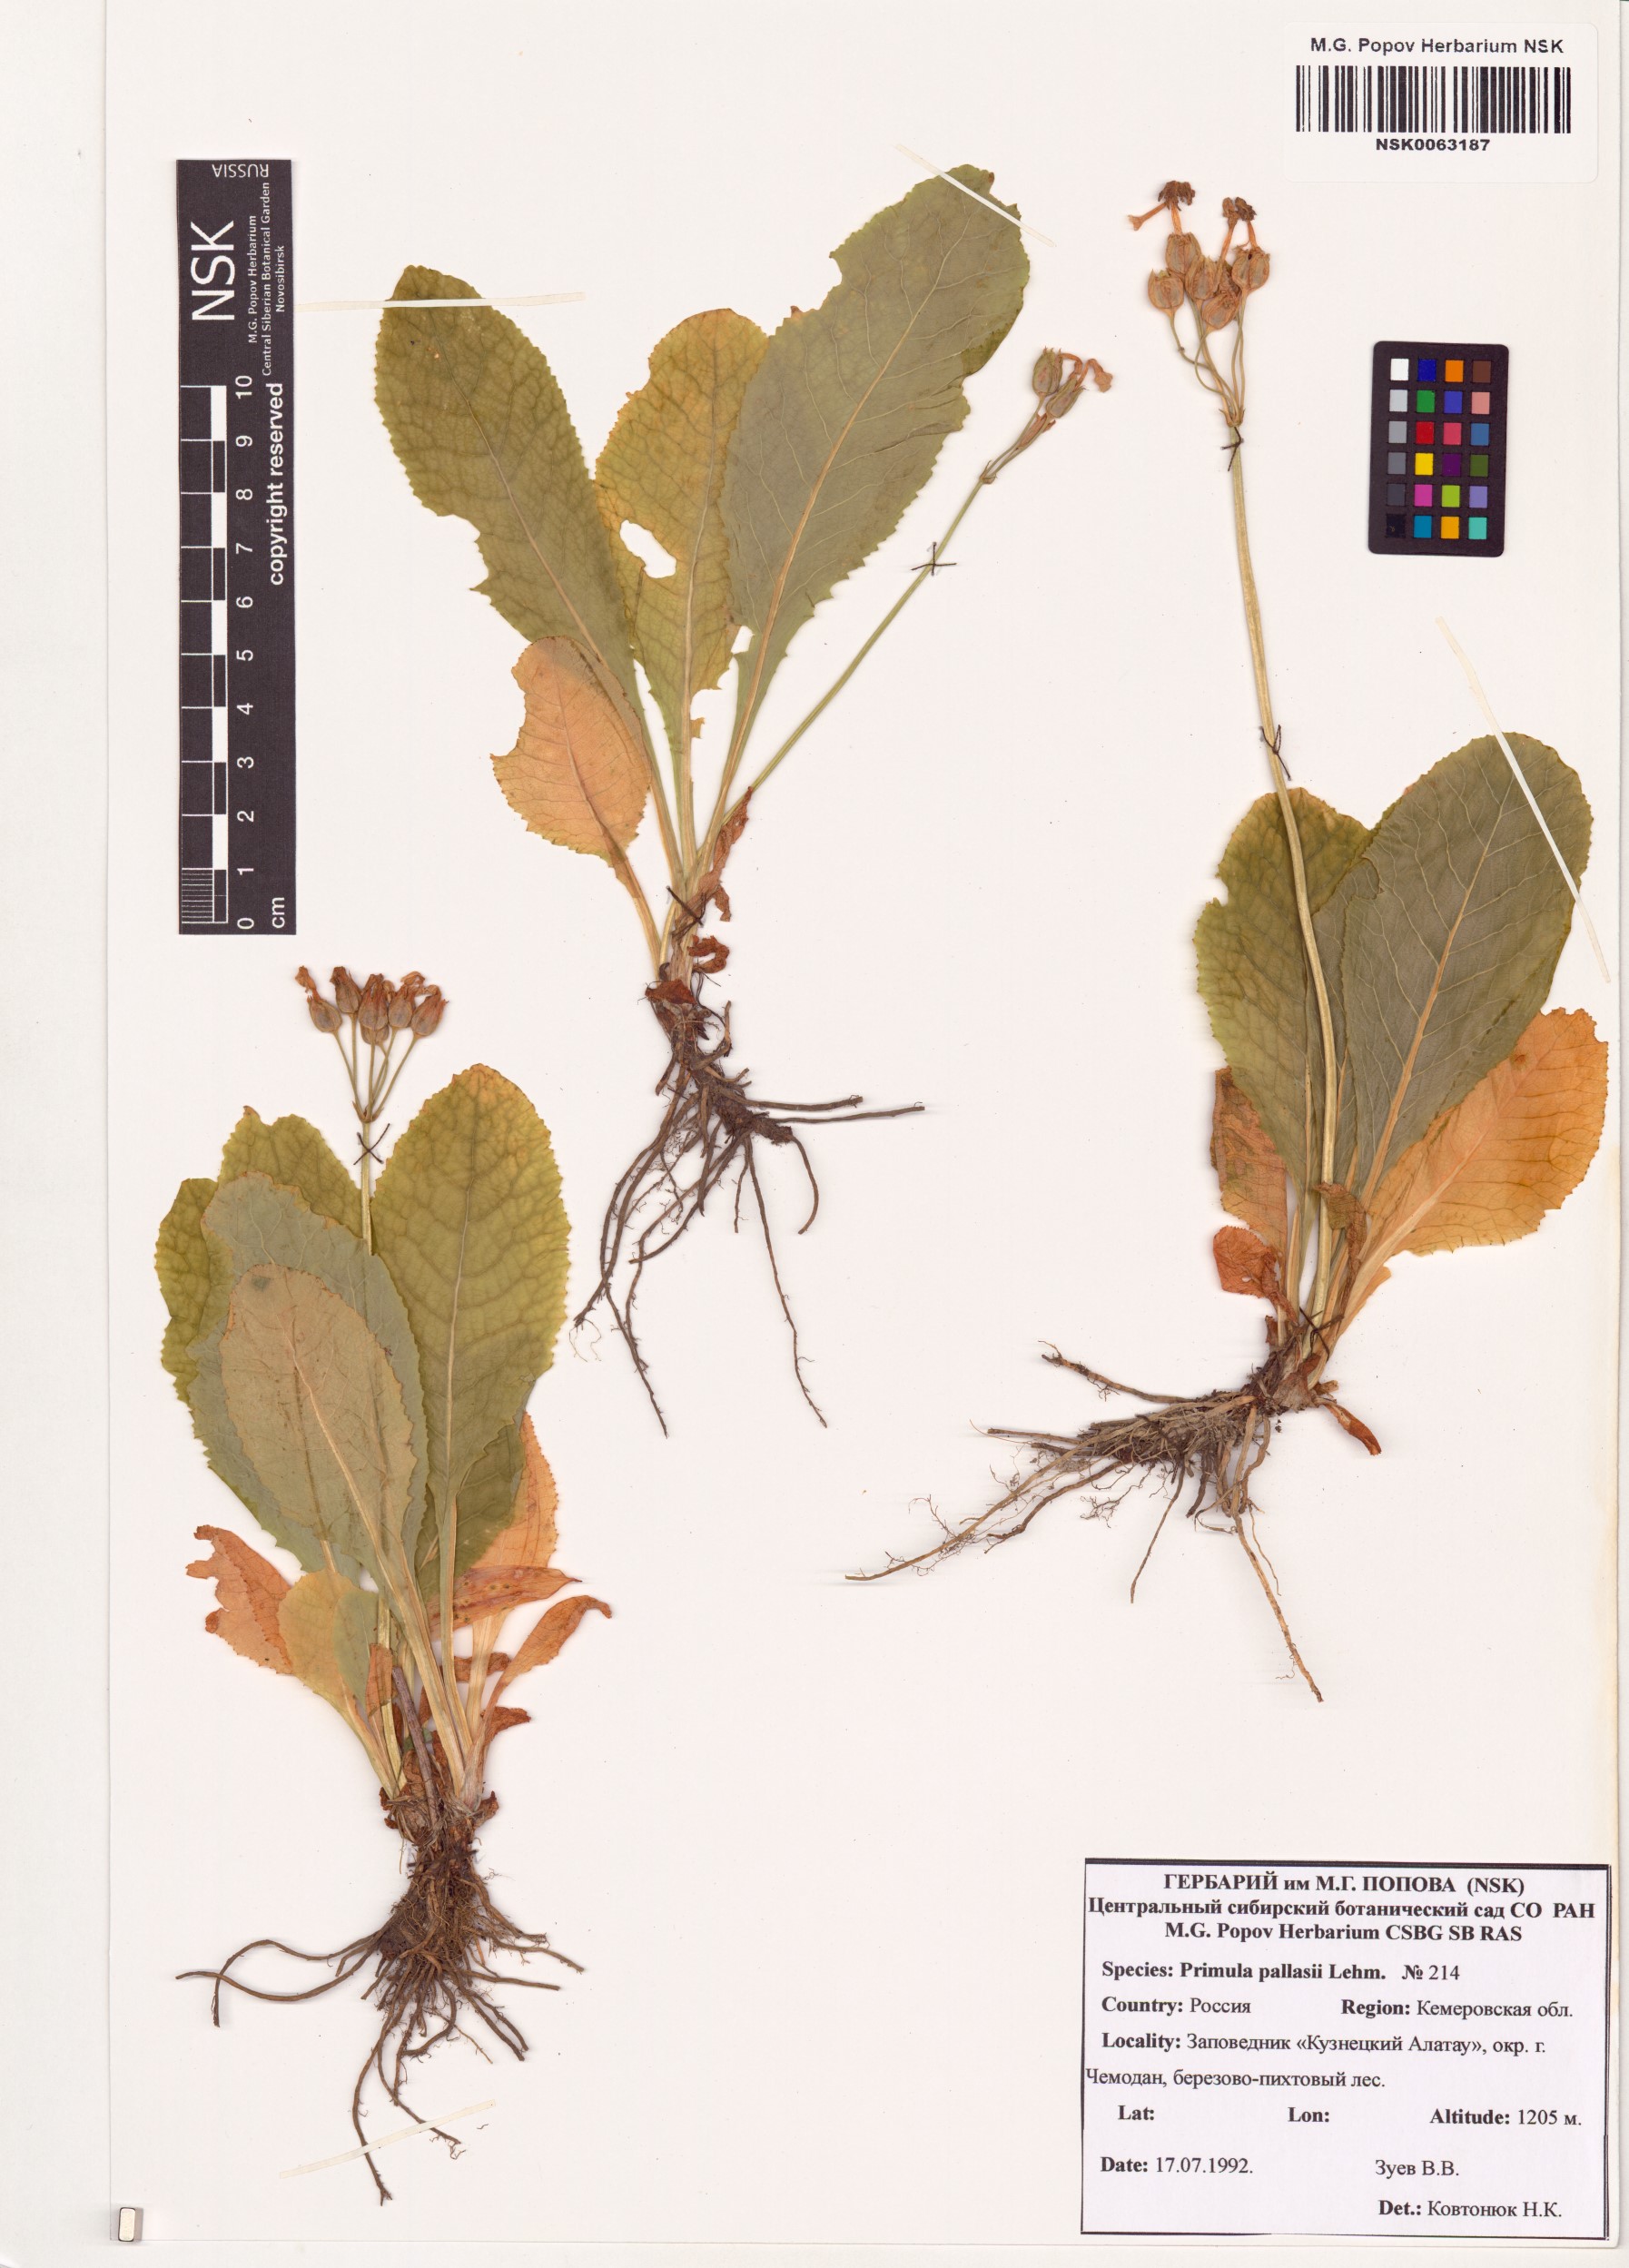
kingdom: Plantae
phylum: Tracheophyta
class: Magnoliopsida
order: Ericales
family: Primulaceae
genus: Primula
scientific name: Primula elatior
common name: Oxlip
